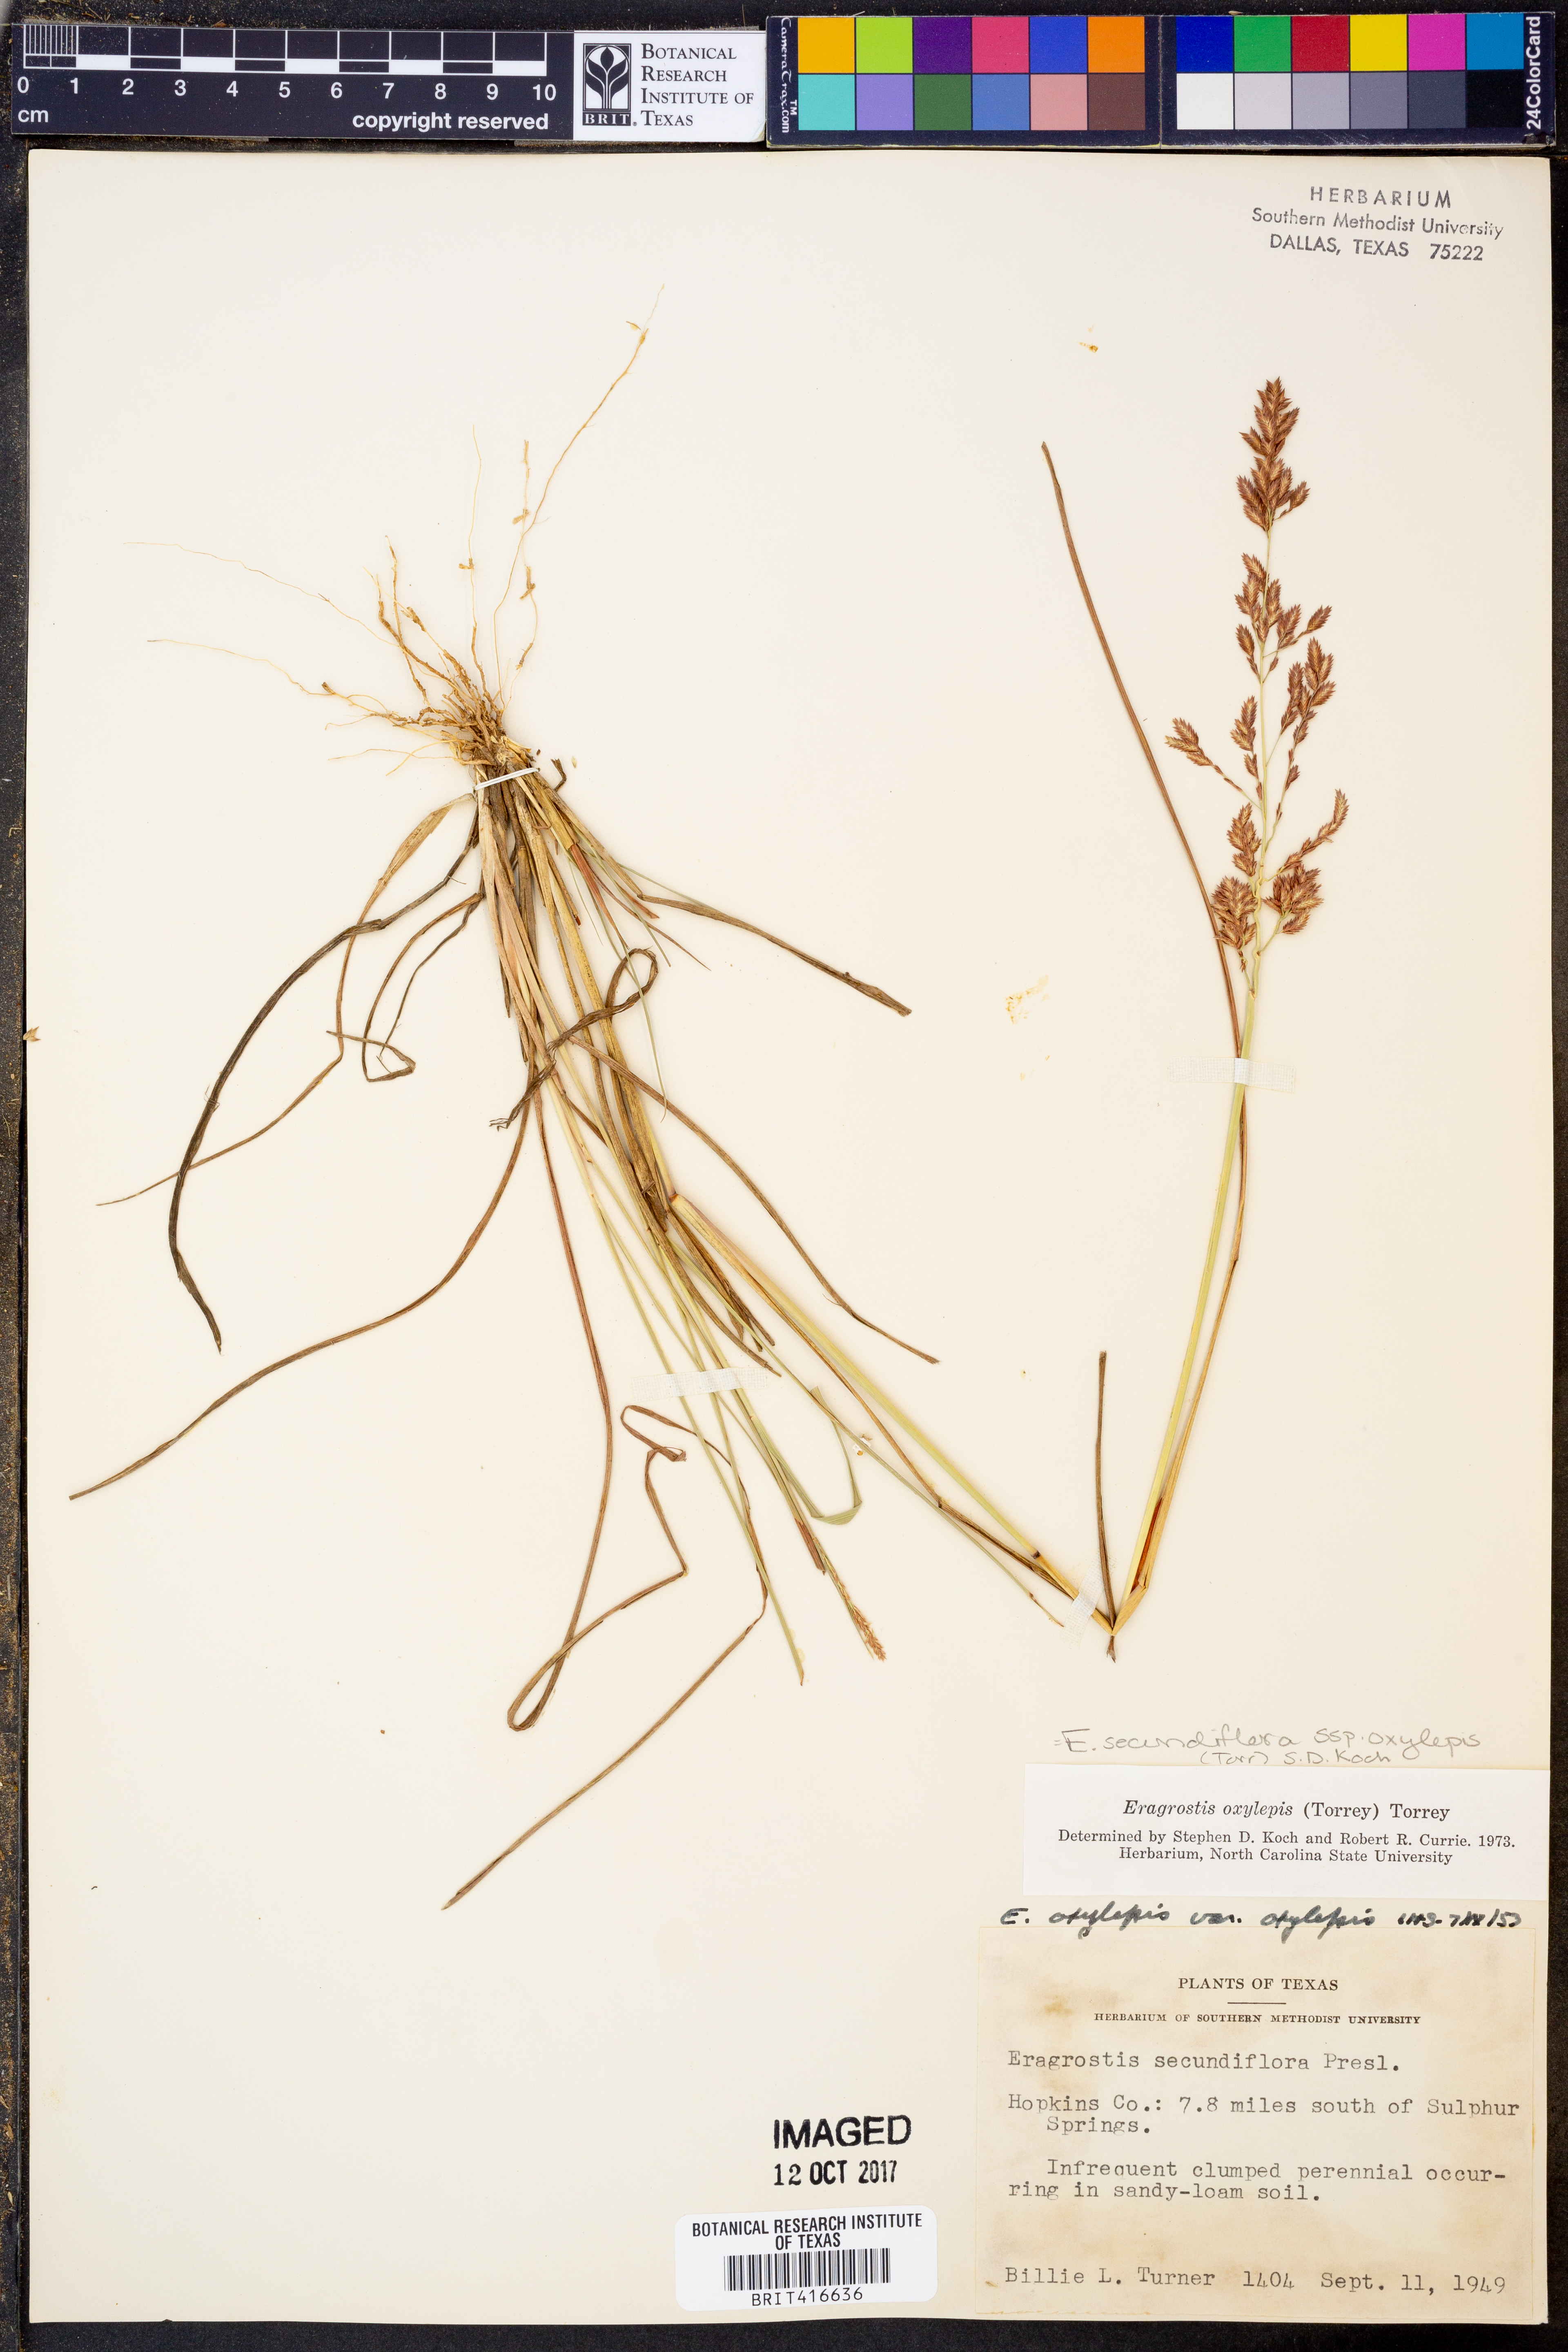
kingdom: Plantae
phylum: Tracheophyta
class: Liliopsida
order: Poales
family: Poaceae
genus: Eragrostis
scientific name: Eragrostis secundiflora
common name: Red love grass
